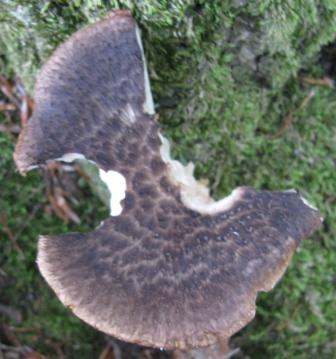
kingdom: Fungi
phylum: Basidiomycota
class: Agaricomycetes
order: Polyporales
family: Polyporaceae
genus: Polyporus
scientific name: Polyporus tuberaster
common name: knoldet stilkporesvamp
